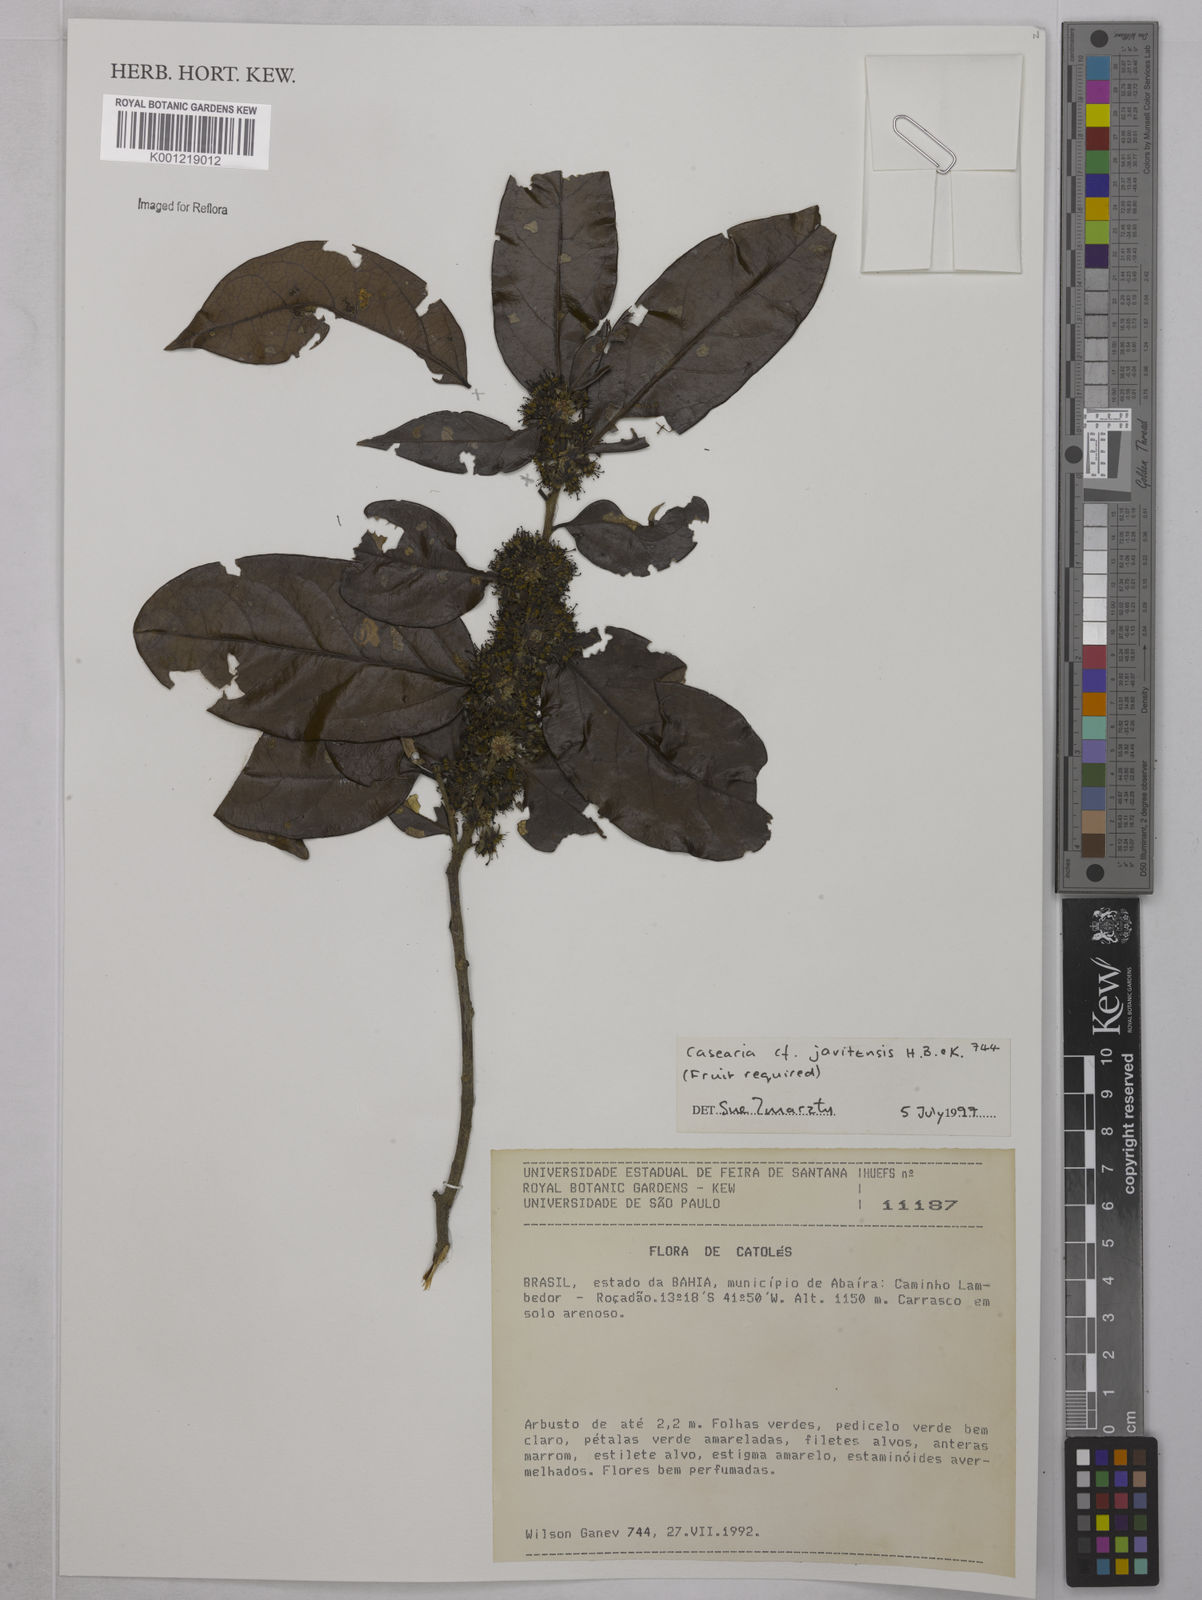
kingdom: Plantae
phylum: Tracheophyta
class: Magnoliopsida
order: Malpighiales
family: Salicaceae
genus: Piparea
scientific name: Piparea multiflora
